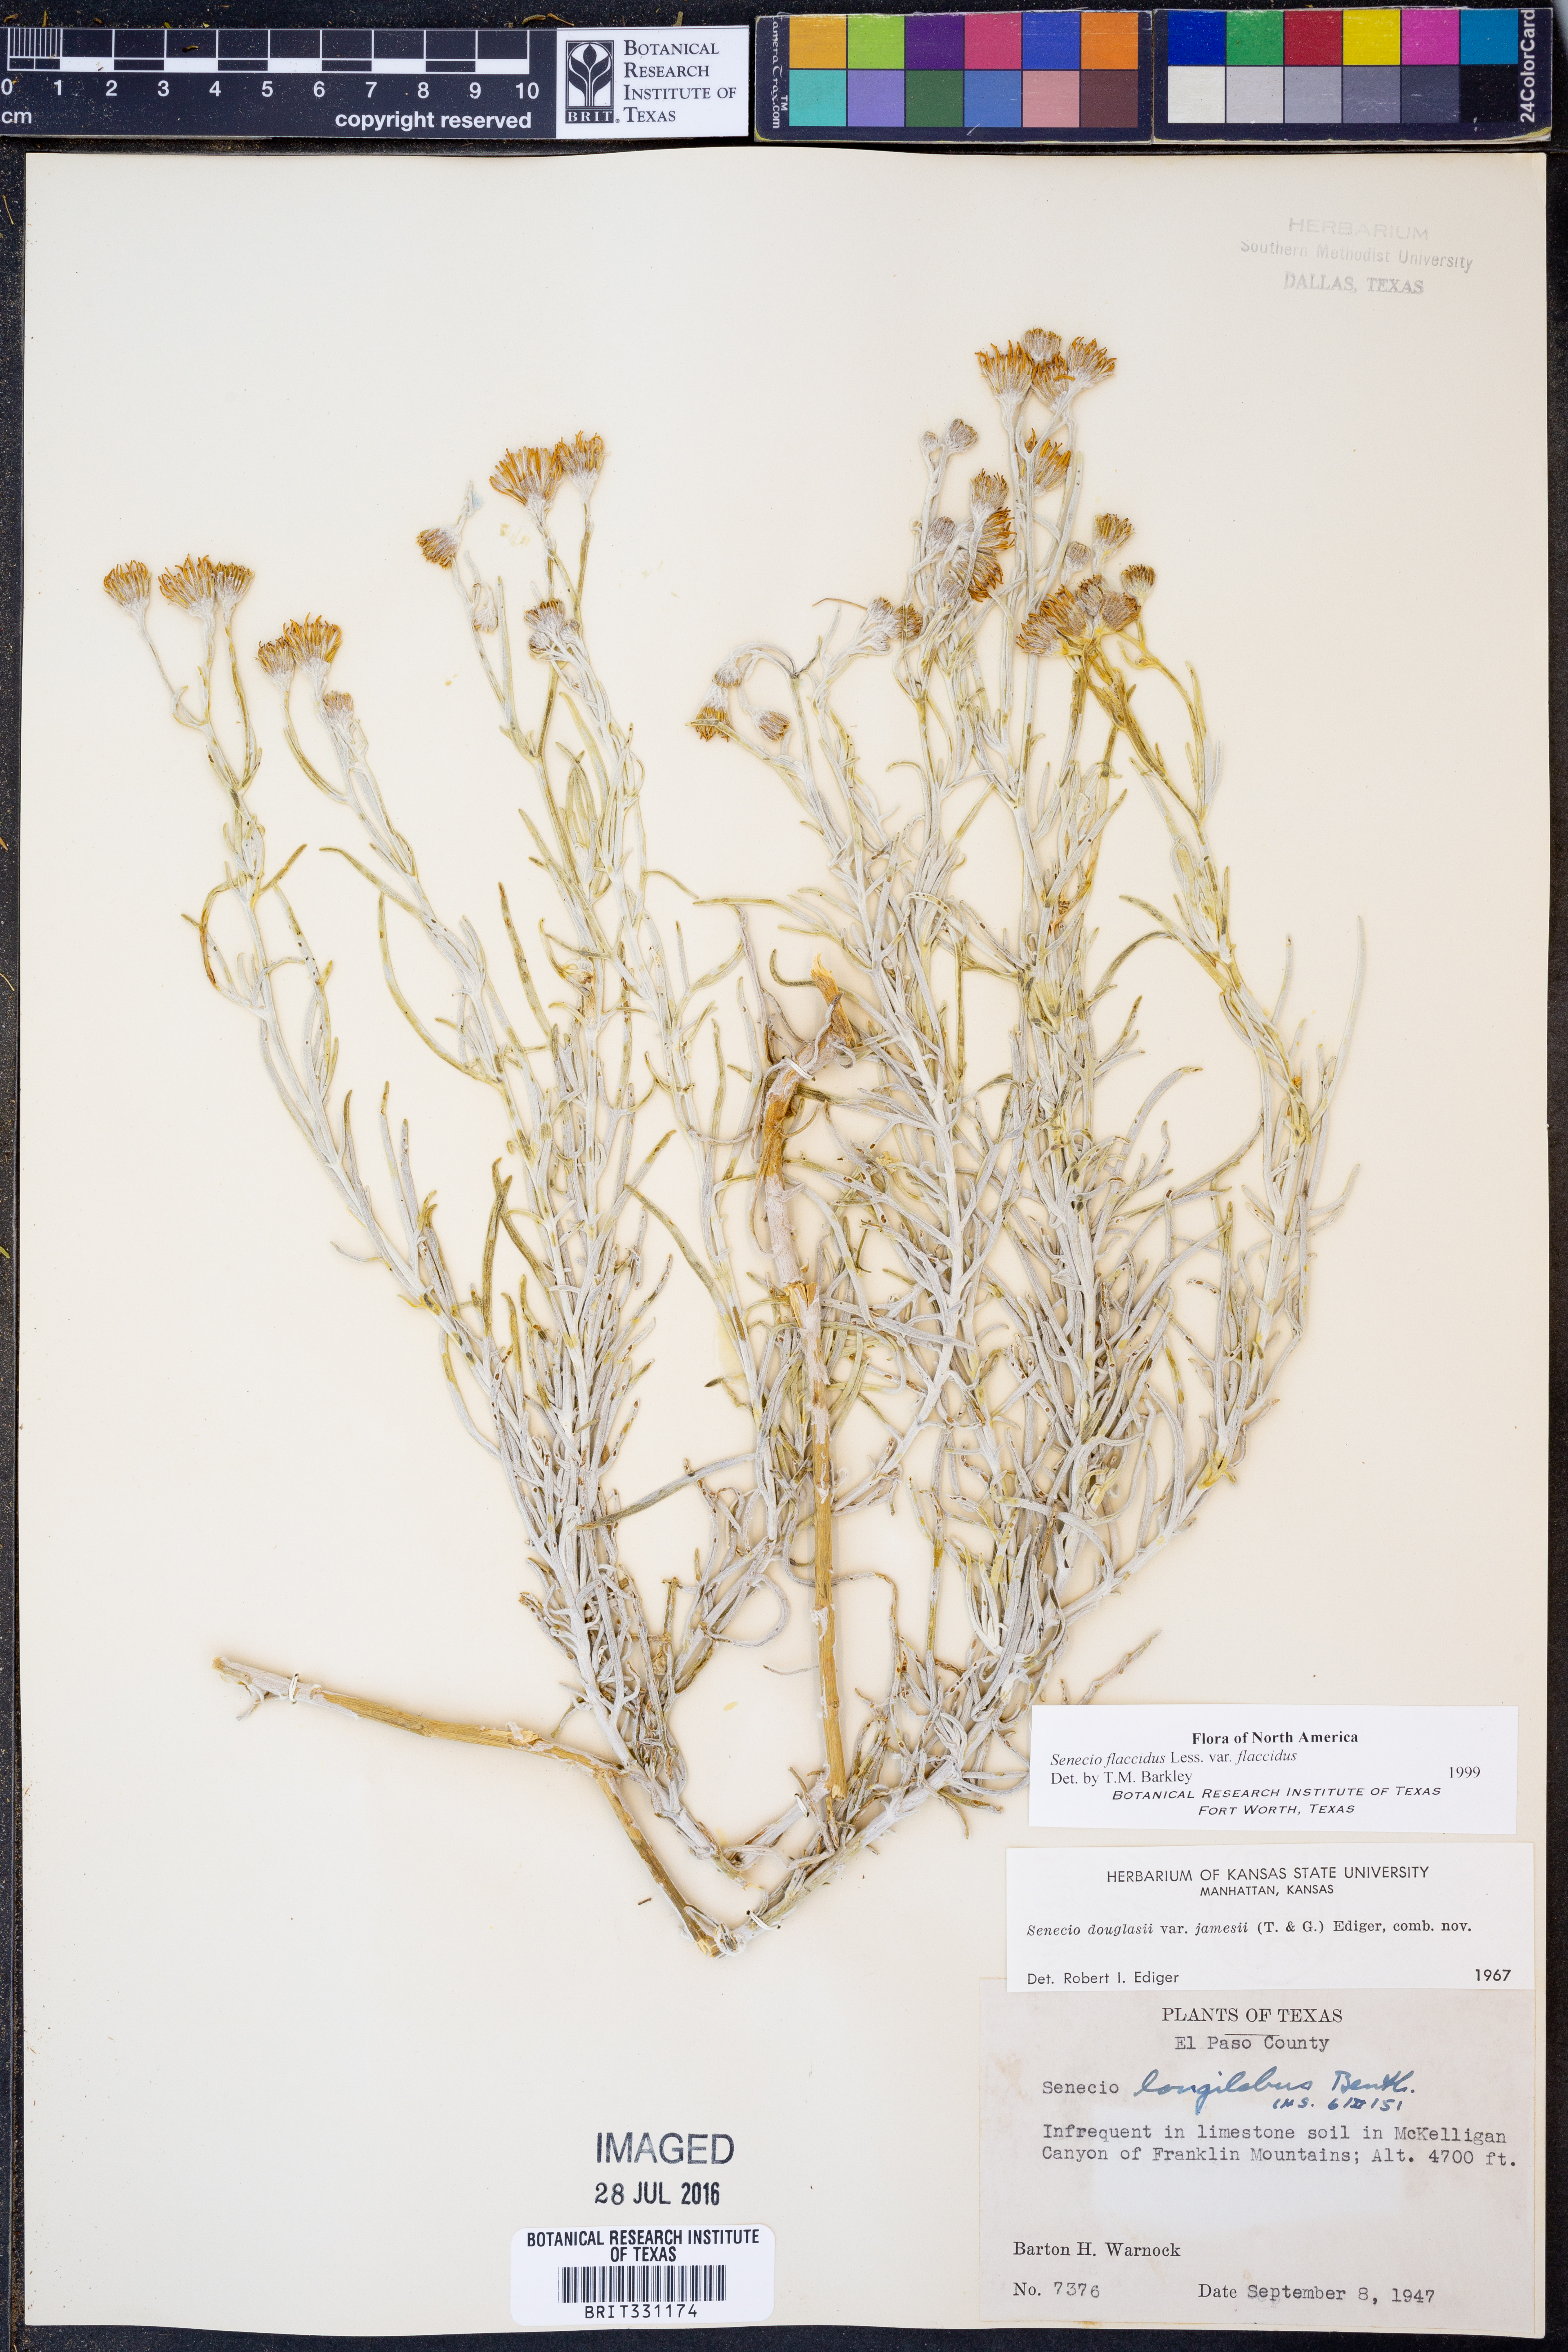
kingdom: Plantae
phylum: Tracheophyta
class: Magnoliopsida
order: Asterales
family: Asteraceae
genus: Senecio
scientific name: Senecio flaccidus
